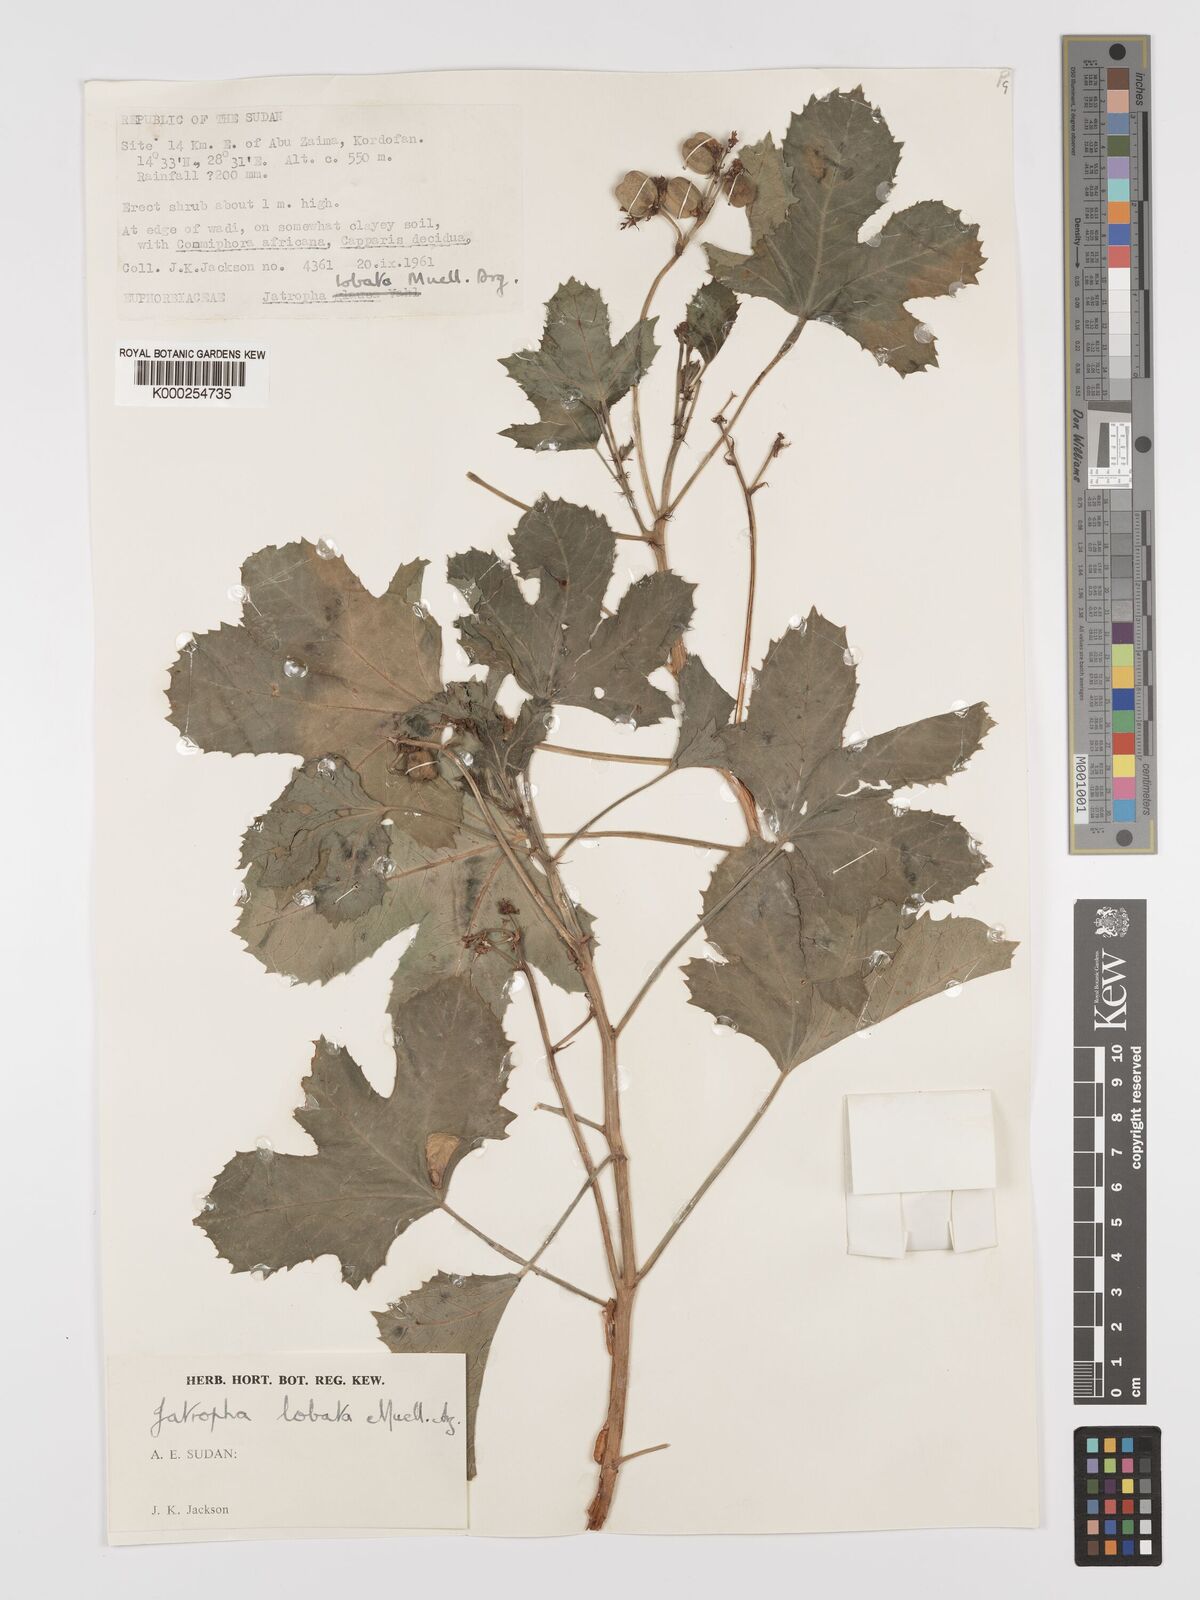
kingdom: Plantae
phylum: Tracheophyta
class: Magnoliopsida
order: Malpighiales
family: Euphorbiaceae
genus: Jatropha
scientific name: Jatropha glauca
